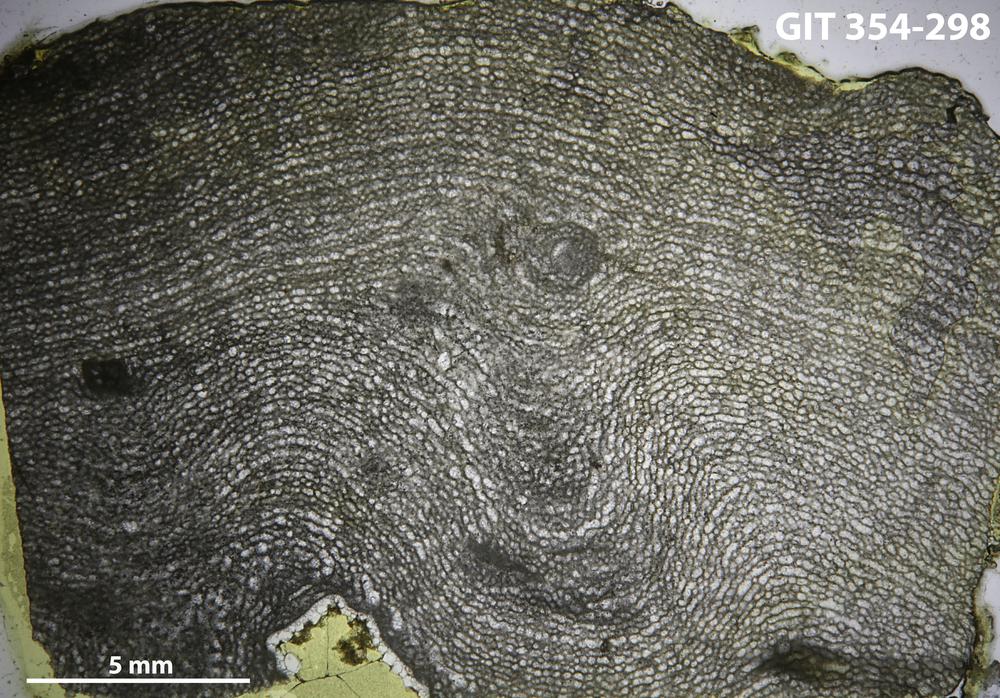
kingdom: Animalia
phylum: Porifera
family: Clathrodictyidae
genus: Clathrodictyon
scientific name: Clathrodictyon boreale
